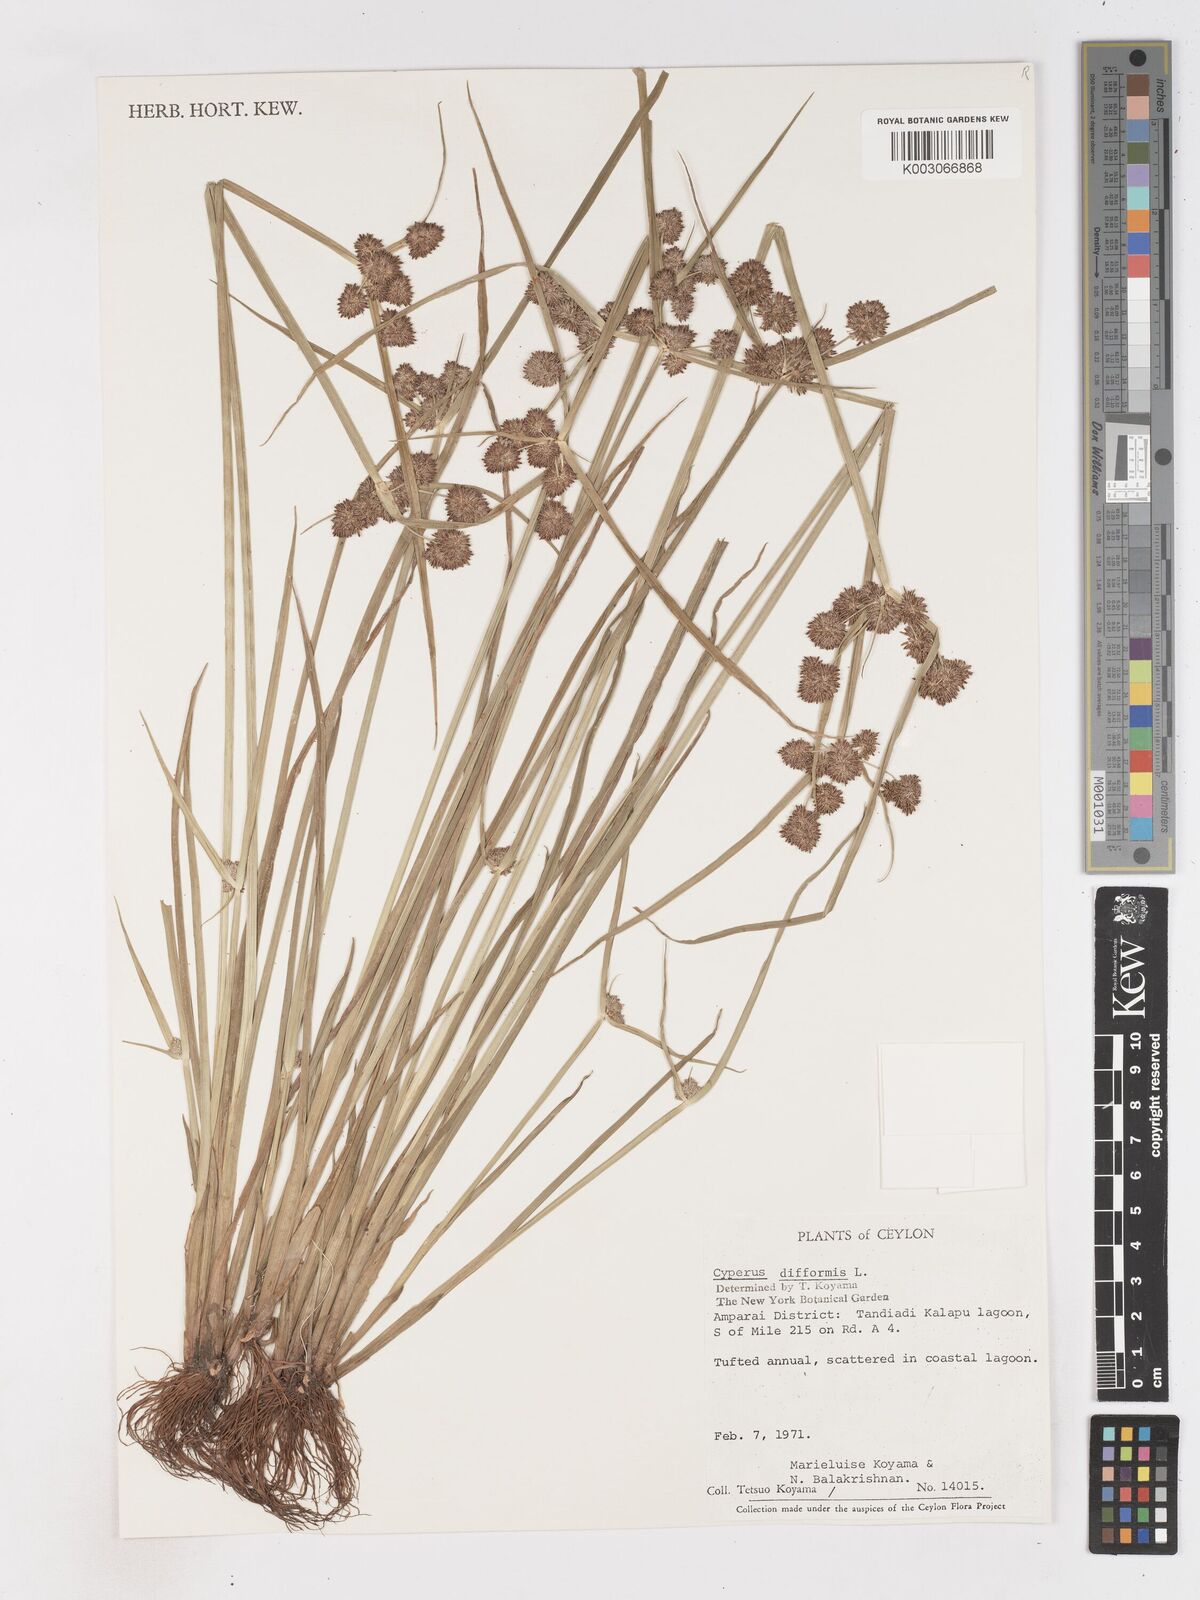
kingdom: Plantae
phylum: Tracheophyta
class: Liliopsida
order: Poales
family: Cyperaceae
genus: Cyperus
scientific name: Cyperus difformis
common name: Variable flatsedge
